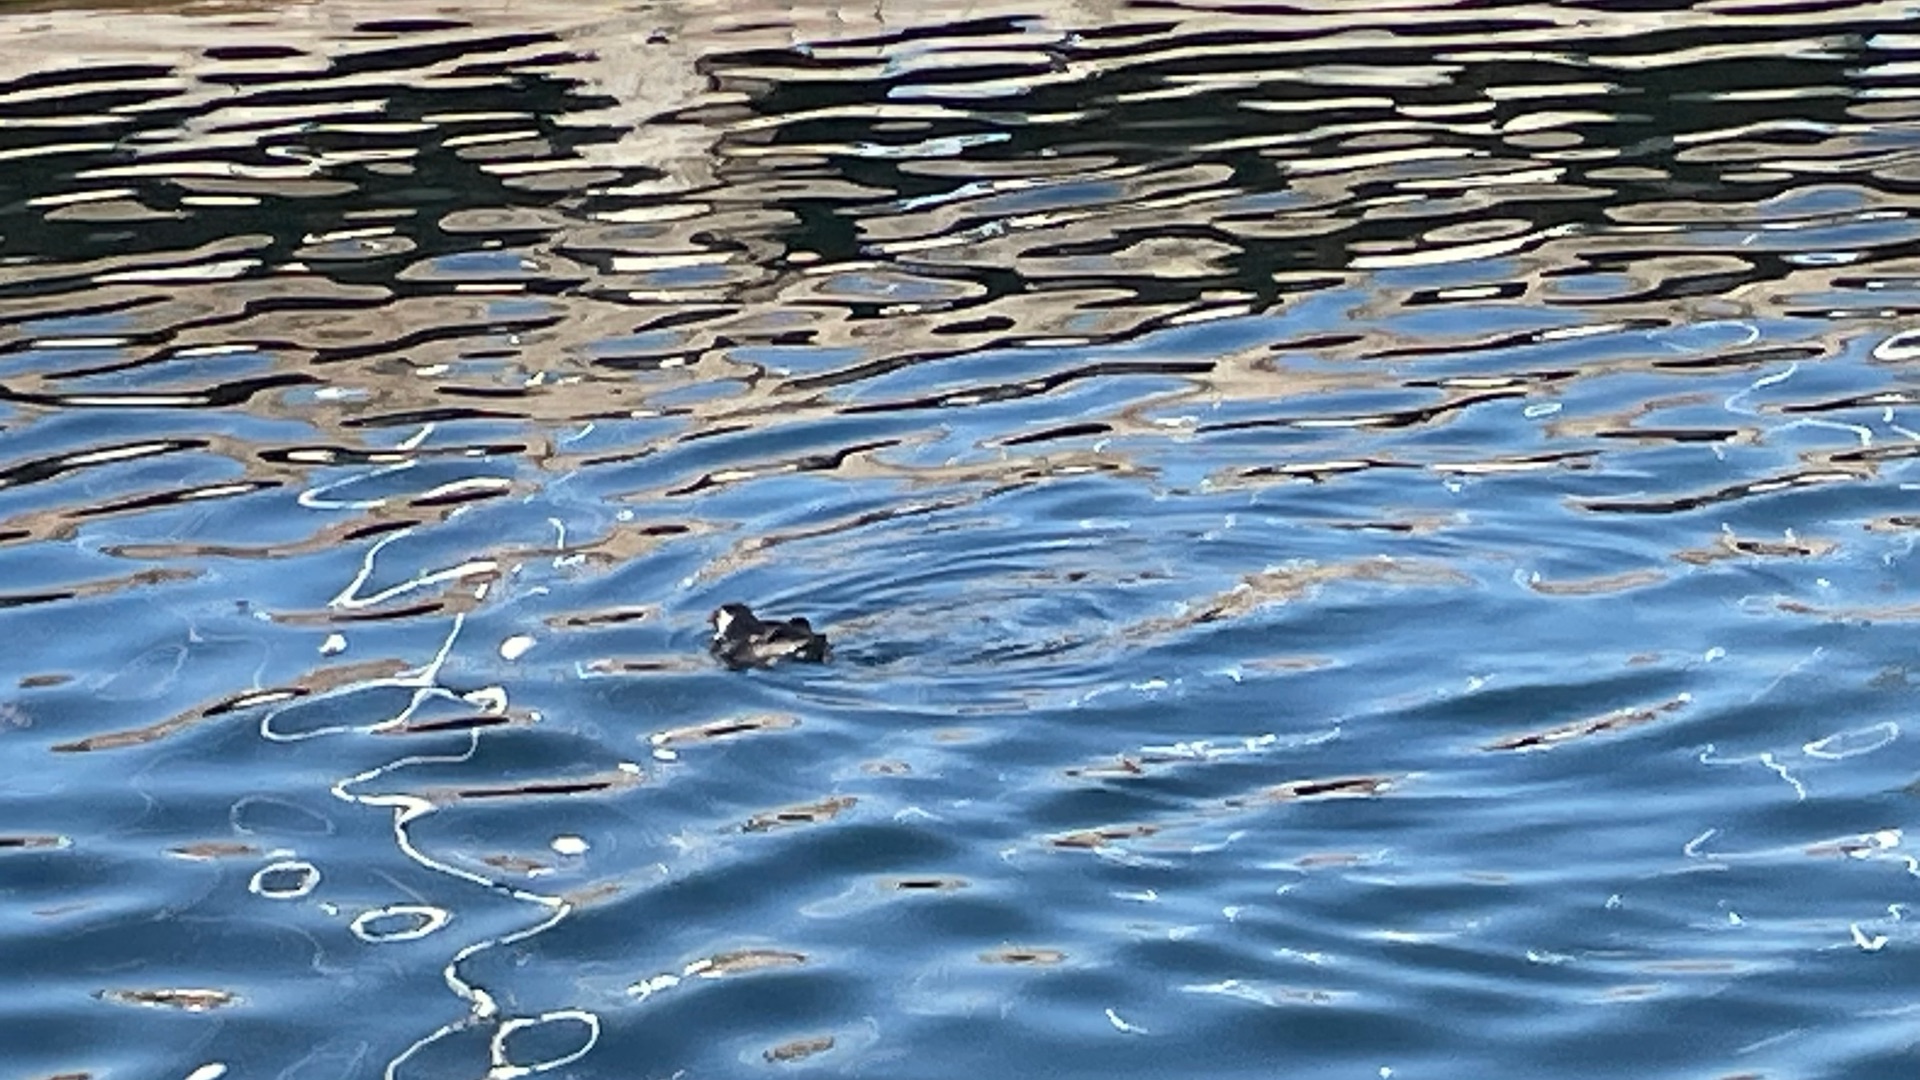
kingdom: Animalia
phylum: Chordata
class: Aves
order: Charadriiformes
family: Alcidae
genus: Fratercula
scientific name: Fratercula arctica
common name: Lunde
